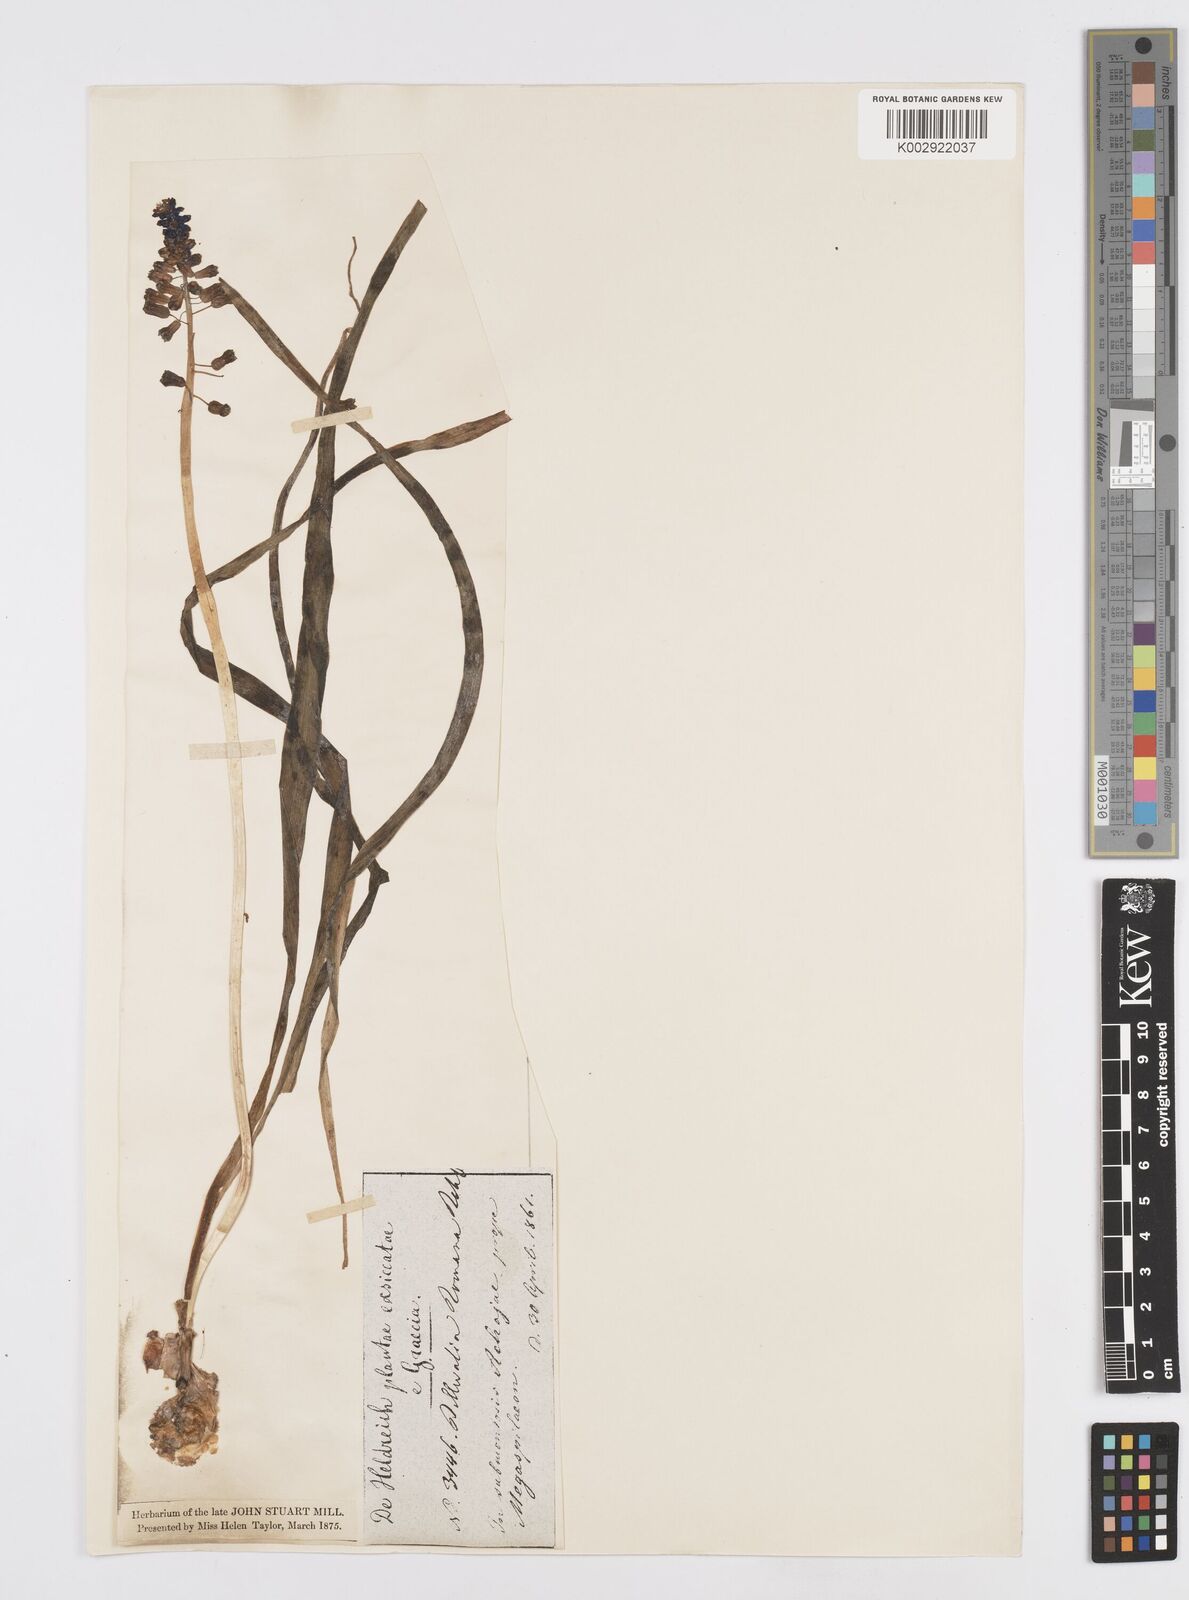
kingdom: Animalia
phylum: Mollusca
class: Cephalopoda
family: Neocomitidae
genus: Leopoldia
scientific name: Leopoldia
